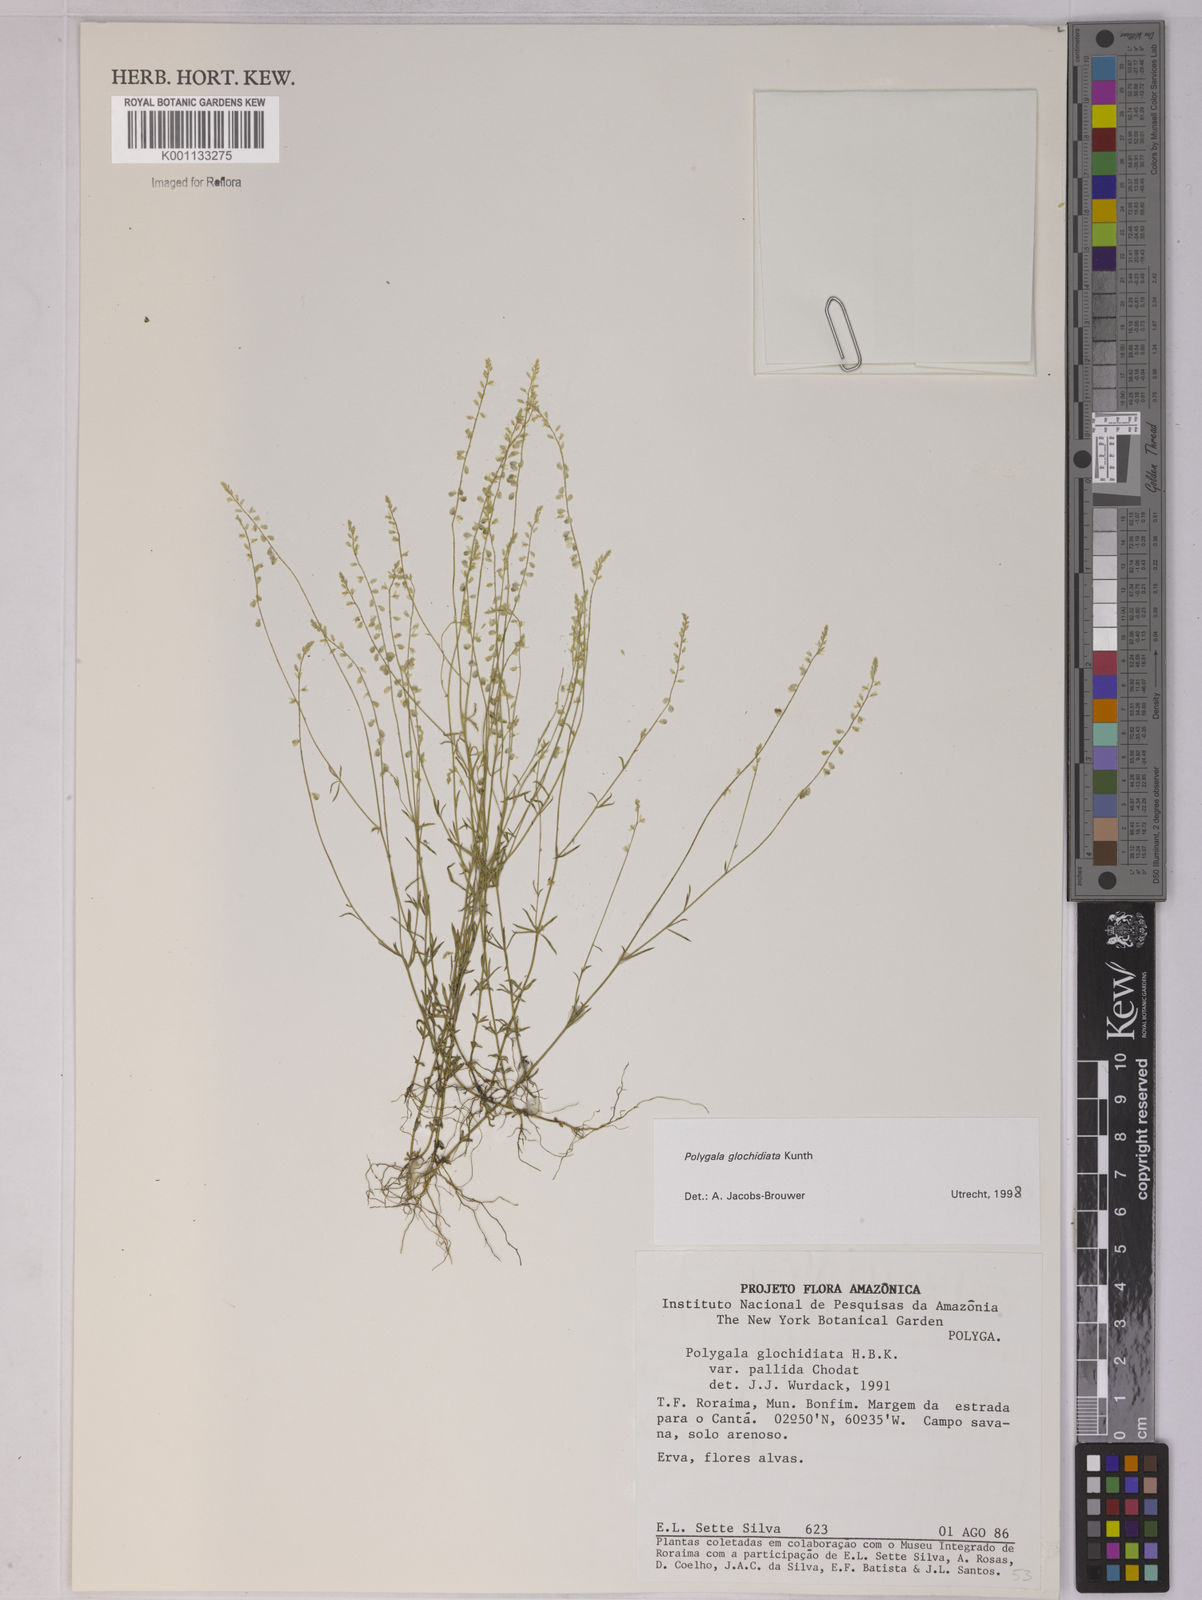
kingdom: Plantae
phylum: Tracheophyta
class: Magnoliopsida
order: Fabales
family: Polygalaceae
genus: Polygala
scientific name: Polygala glochidiata
